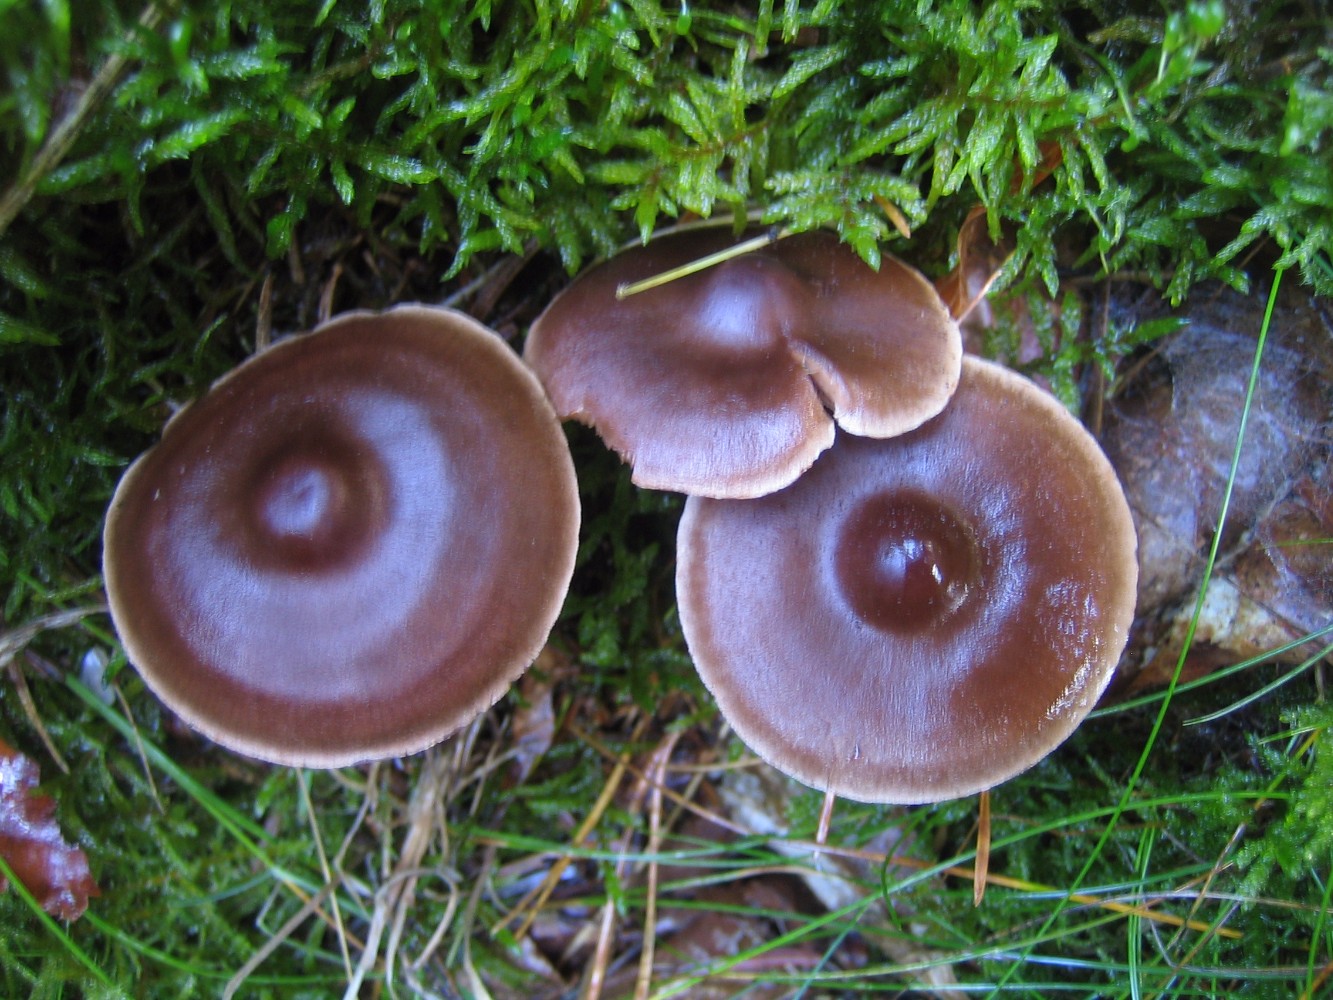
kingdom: Fungi
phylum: Basidiomycota
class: Agaricomycetes
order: Agaricales
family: Cortinariaceae
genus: Cortinarius
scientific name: Cortinarius
